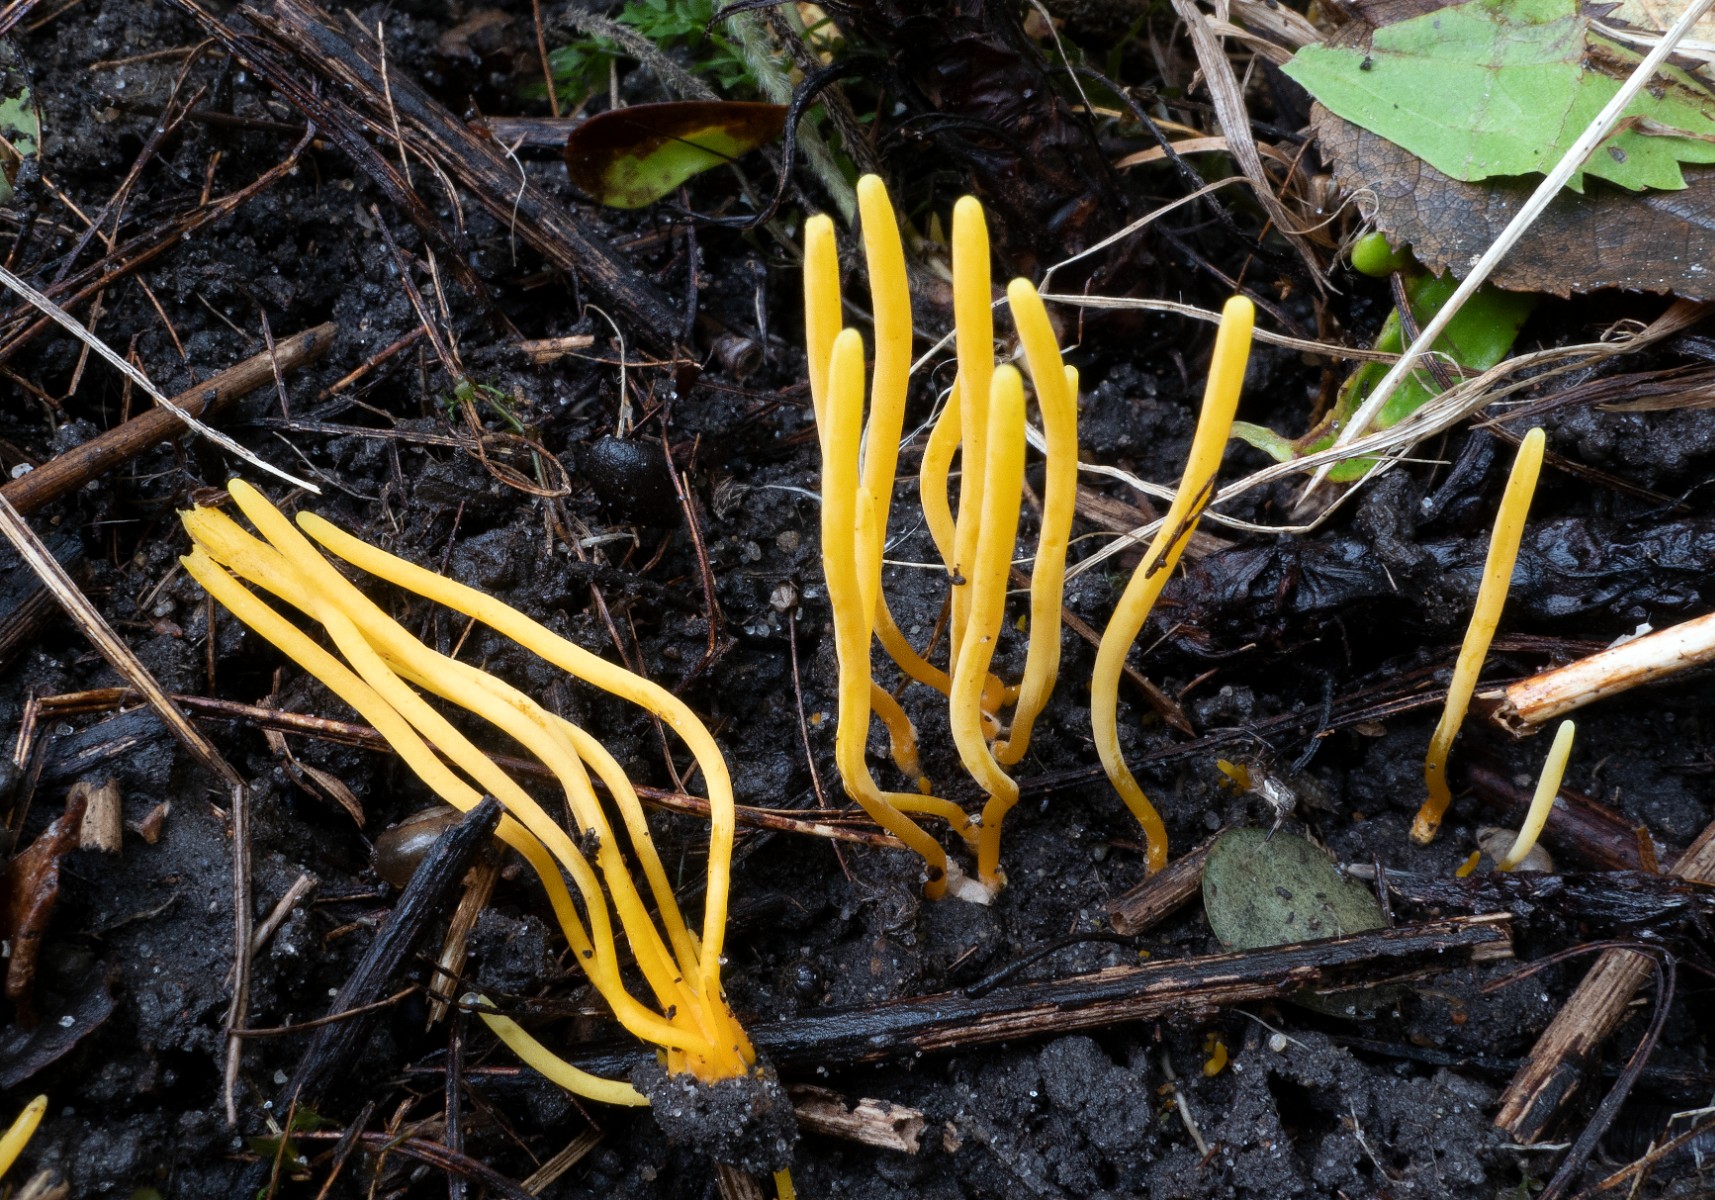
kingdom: Fungi
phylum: Basidiomycota
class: Agaricomycetes
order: Agaricales
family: Clavariaceae
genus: Clavulinopsis
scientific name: Clavulinopsis helvola
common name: orangegul køllesvamp
